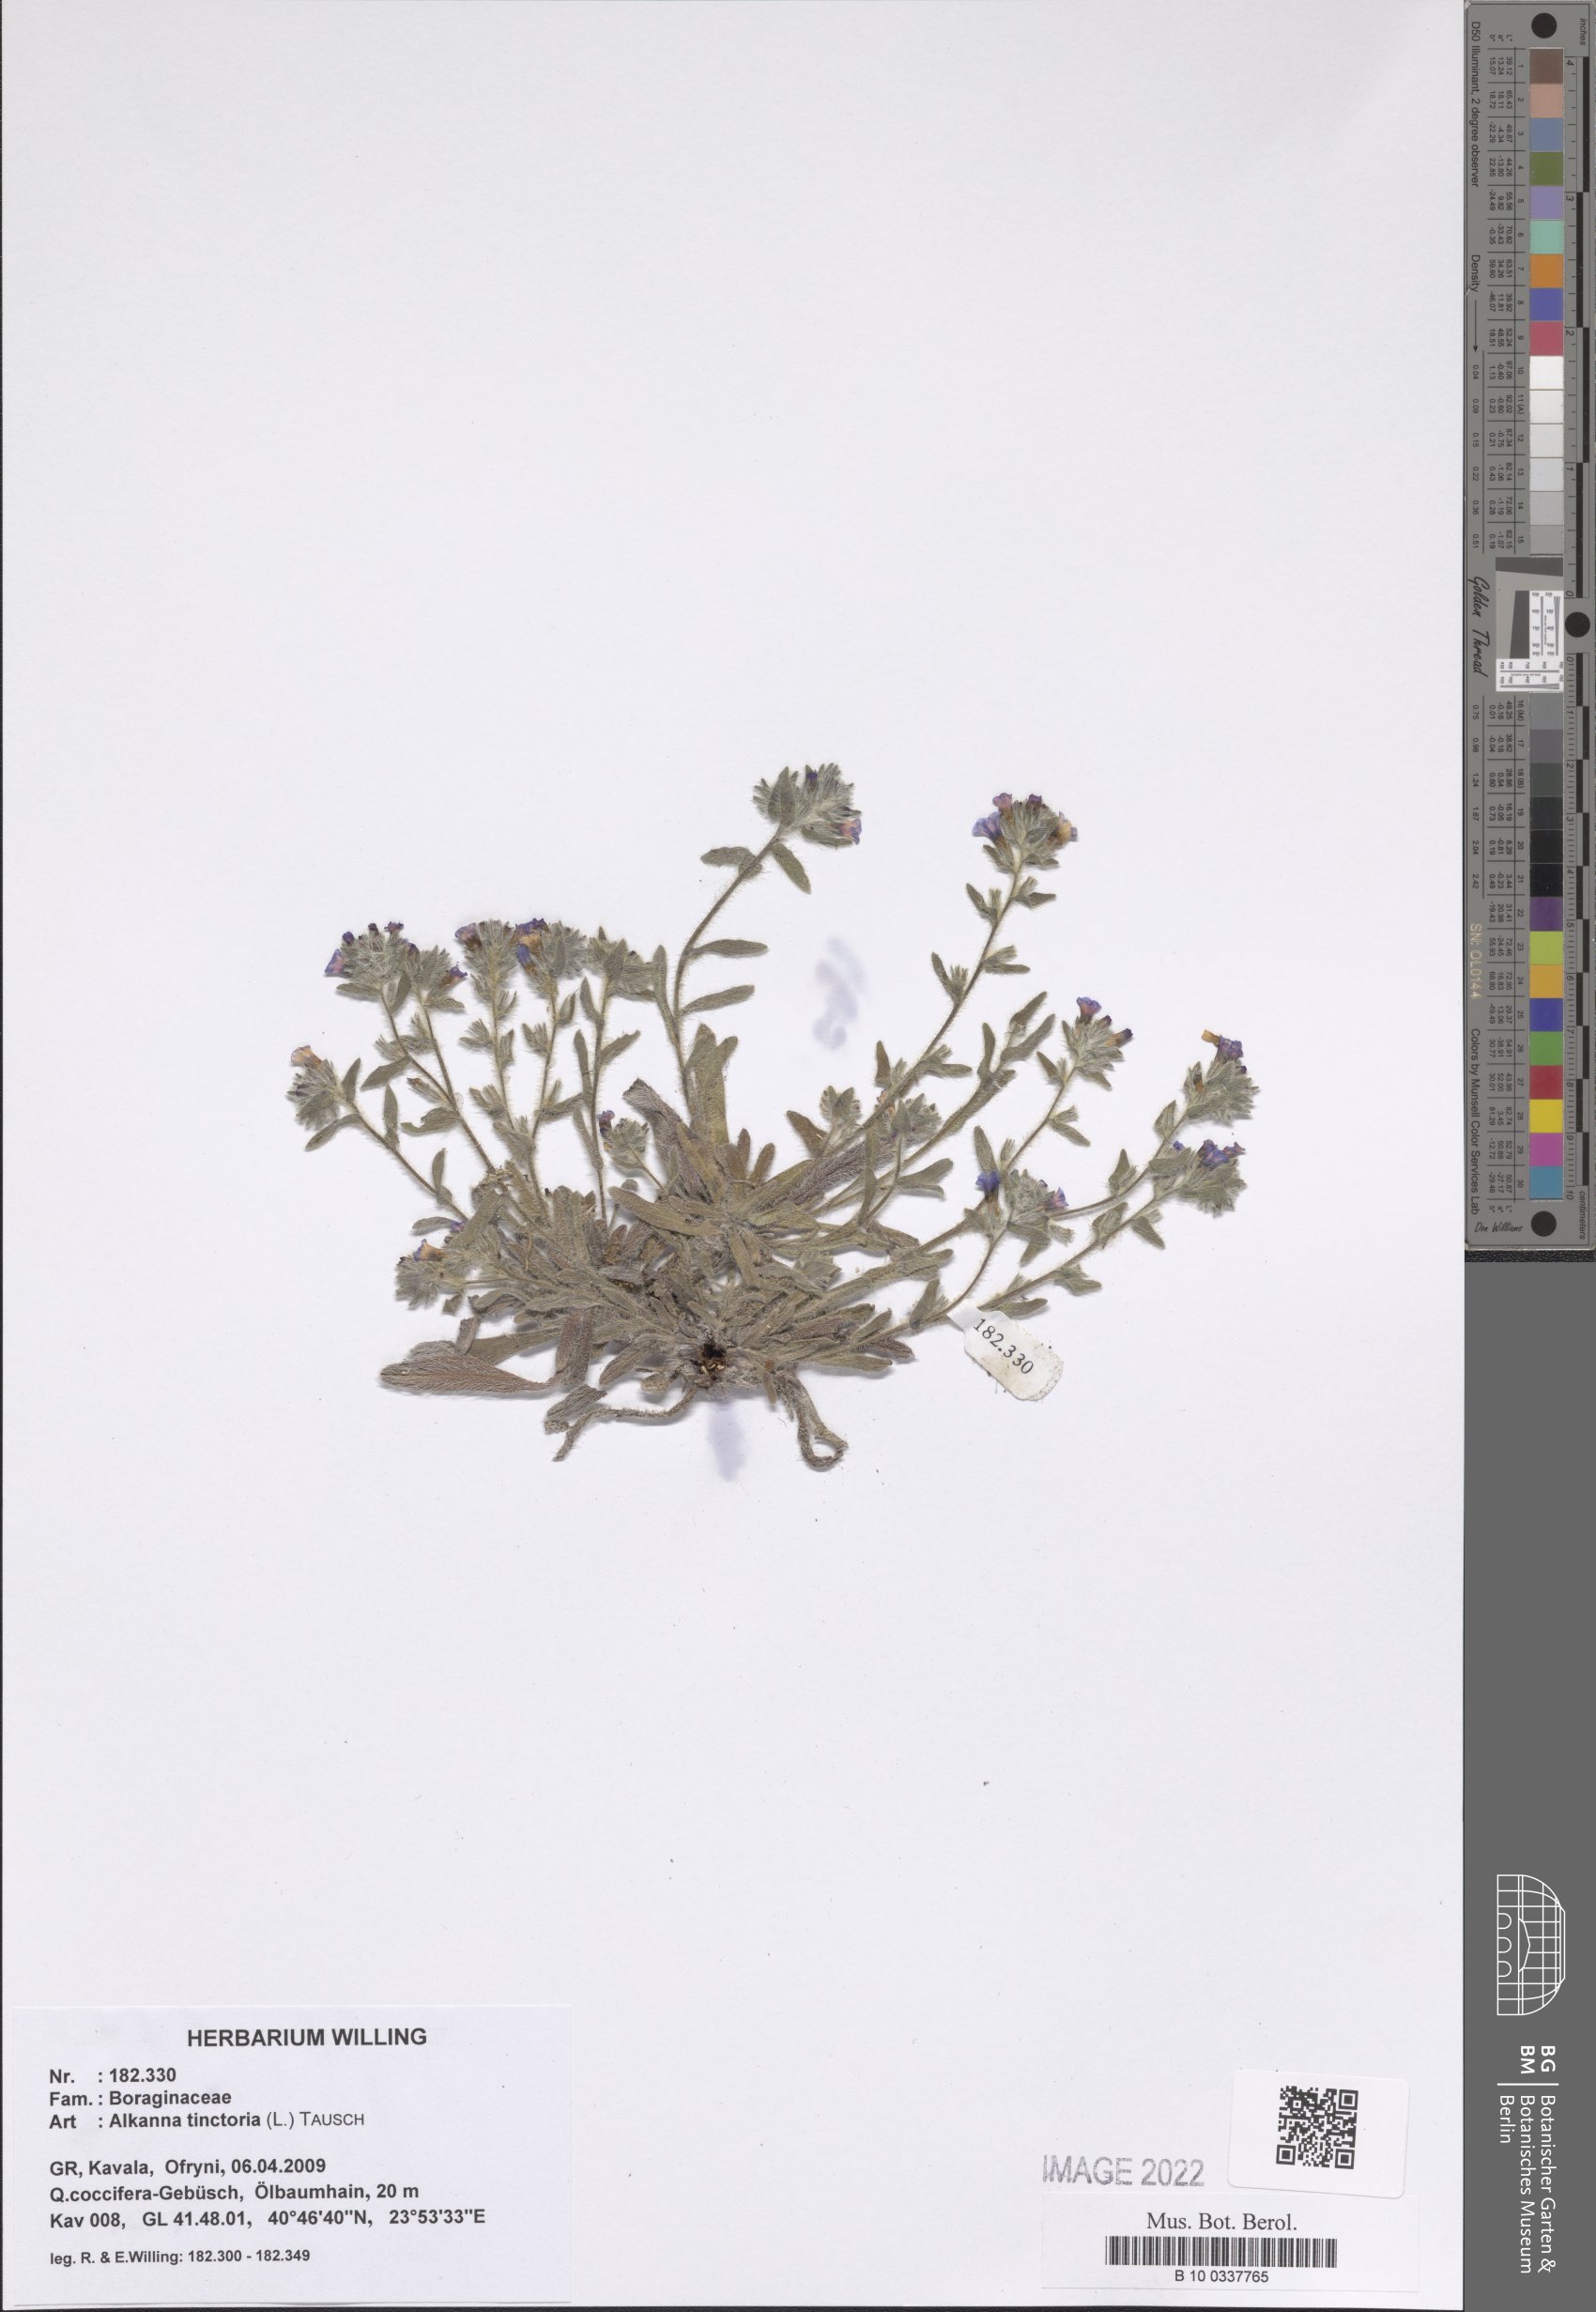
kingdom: Plantae
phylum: Tracheophyta
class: Magnoliopsida
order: Boraginales
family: Boraginaceae
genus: Alkanna
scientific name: Alkanna tinctoria
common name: Dyer's-alkanet
